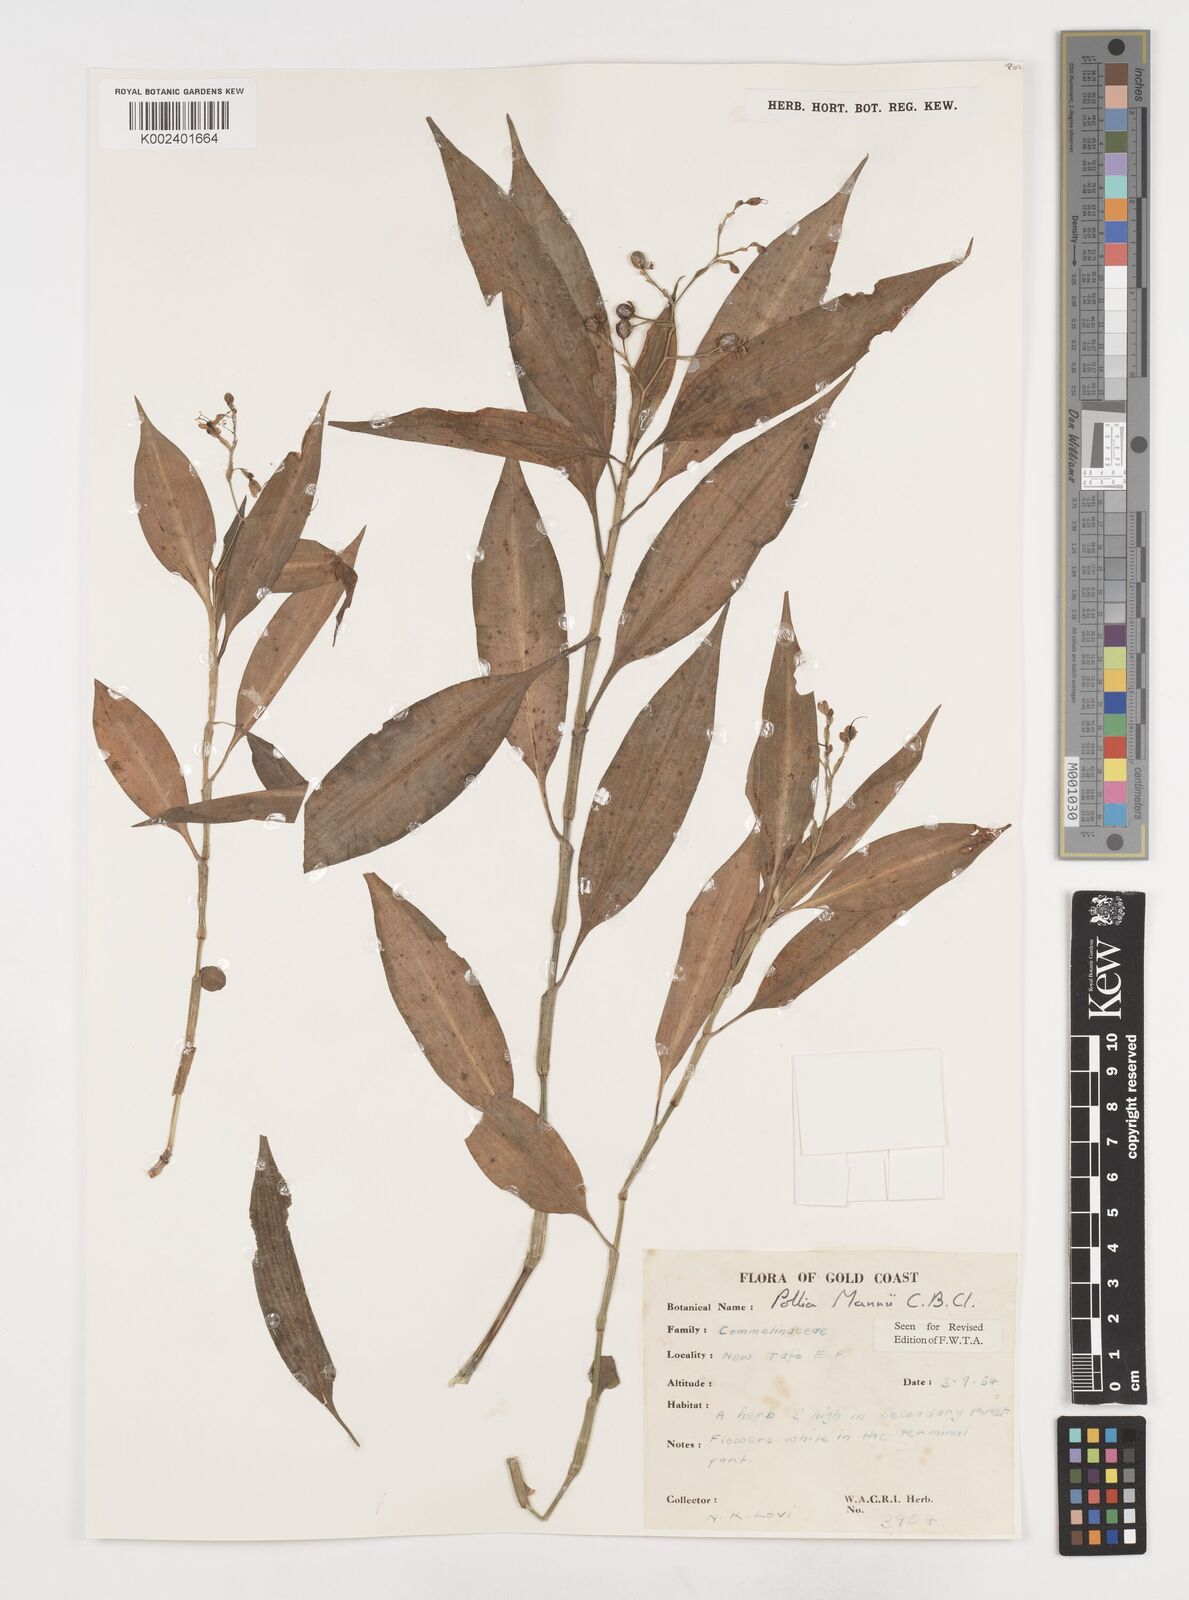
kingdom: Plantae
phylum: Tracheophyta
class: Liliopsida
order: Commelinales
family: Commelinaceae
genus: Pollia
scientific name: Pollia mannii
